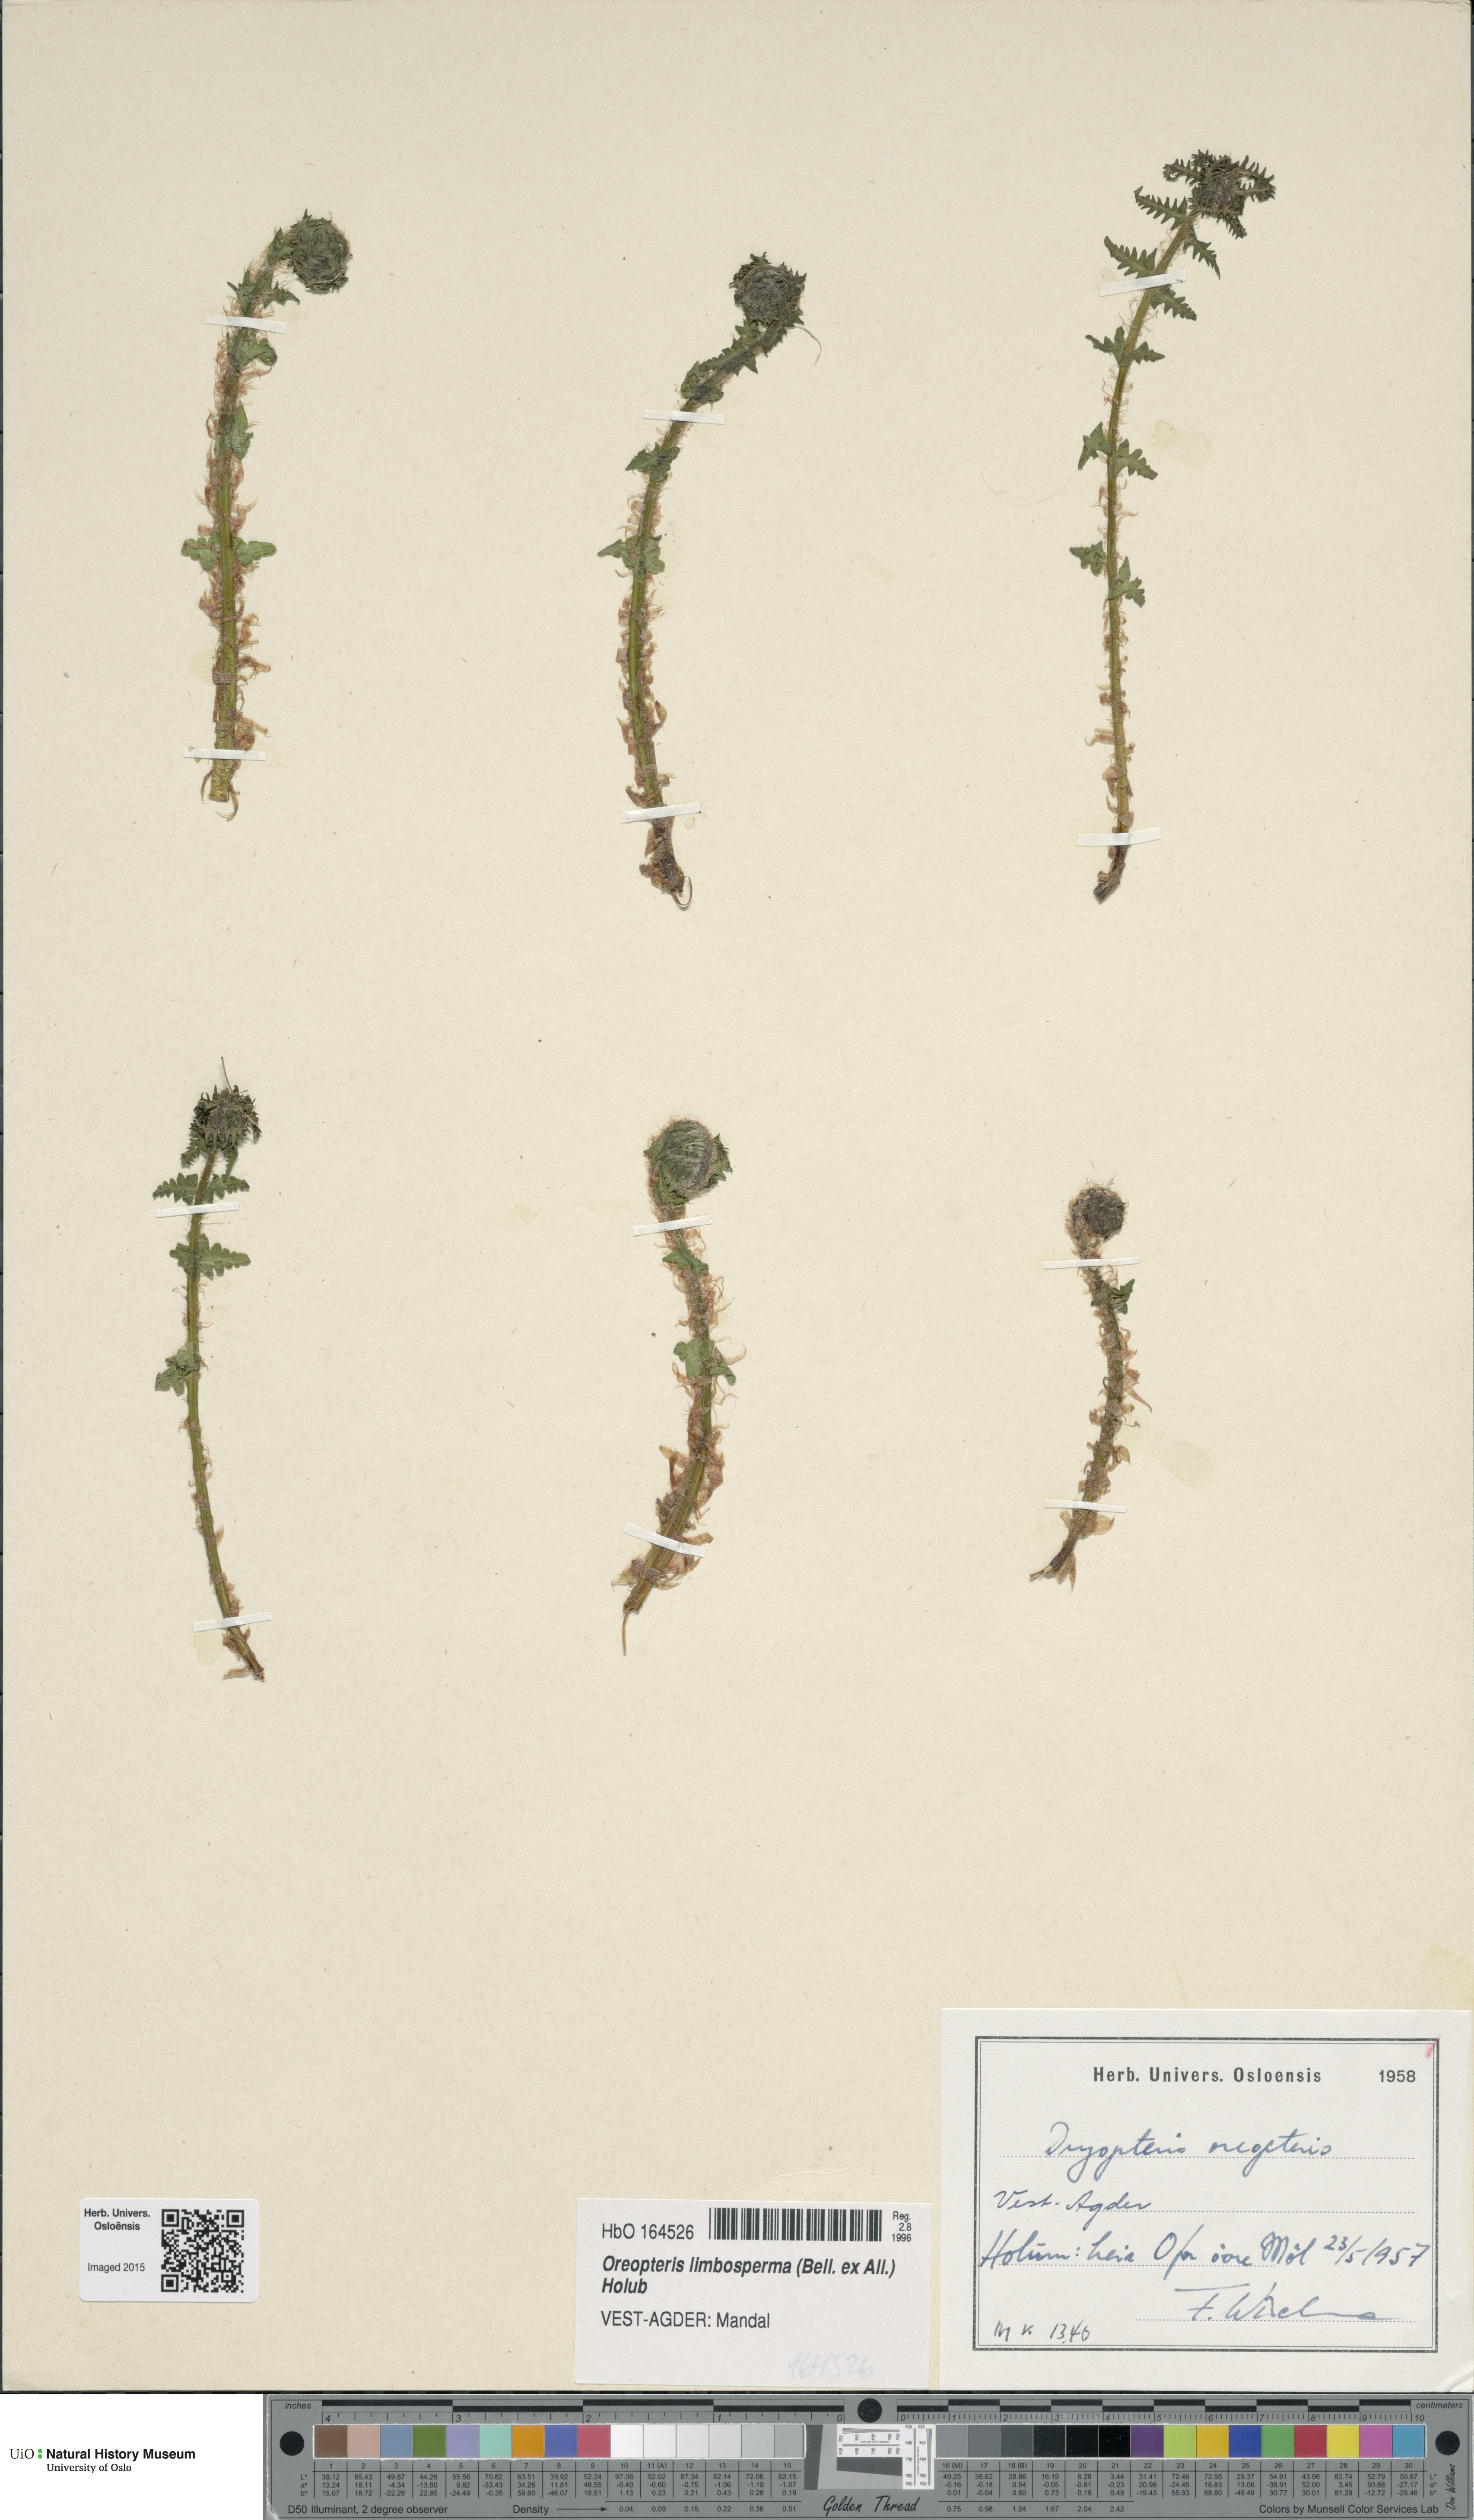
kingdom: Plantae
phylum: Tracheophyta
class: Polypodiopsida
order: Polypodiales
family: Thelypteridaceae
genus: Oreopteris
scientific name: Oreopteris limbosperma
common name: Lemon-scented fern
